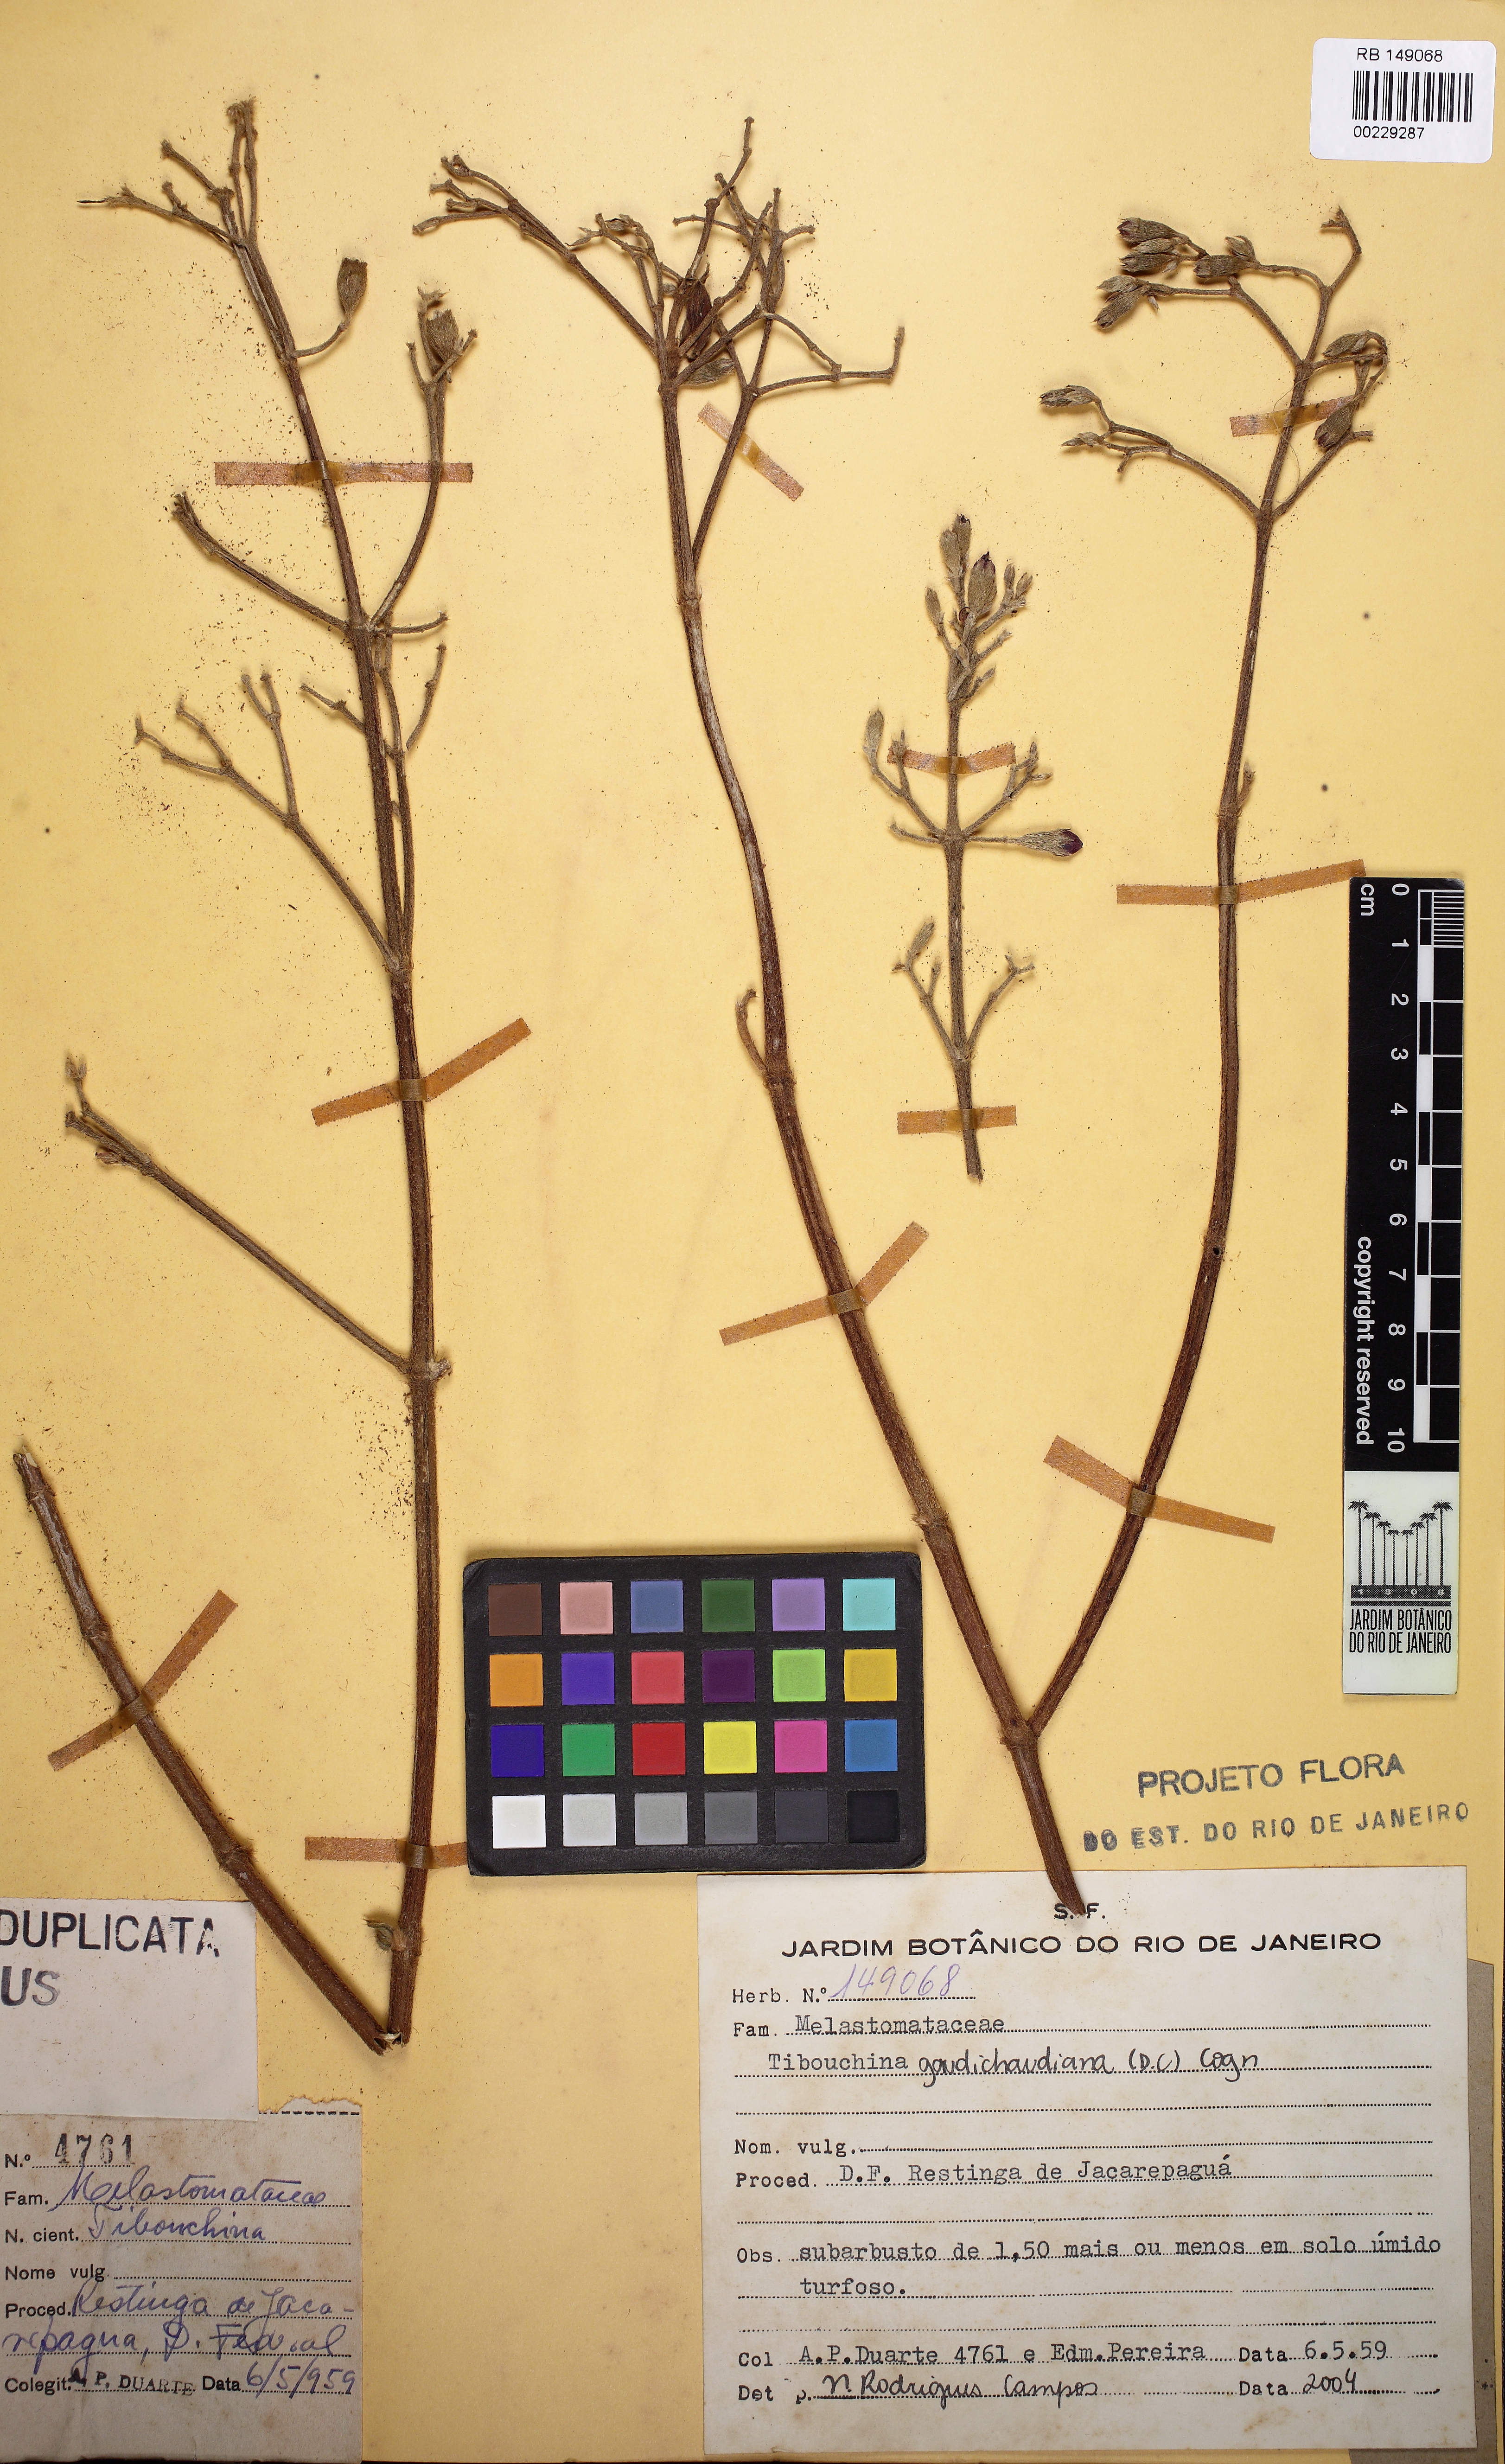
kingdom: Plantae
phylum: Tracheophyta
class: Magnoliopsida
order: Myrtales
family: Melastomataceae
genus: Pleroma
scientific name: Pleroma gaudichaudianum
